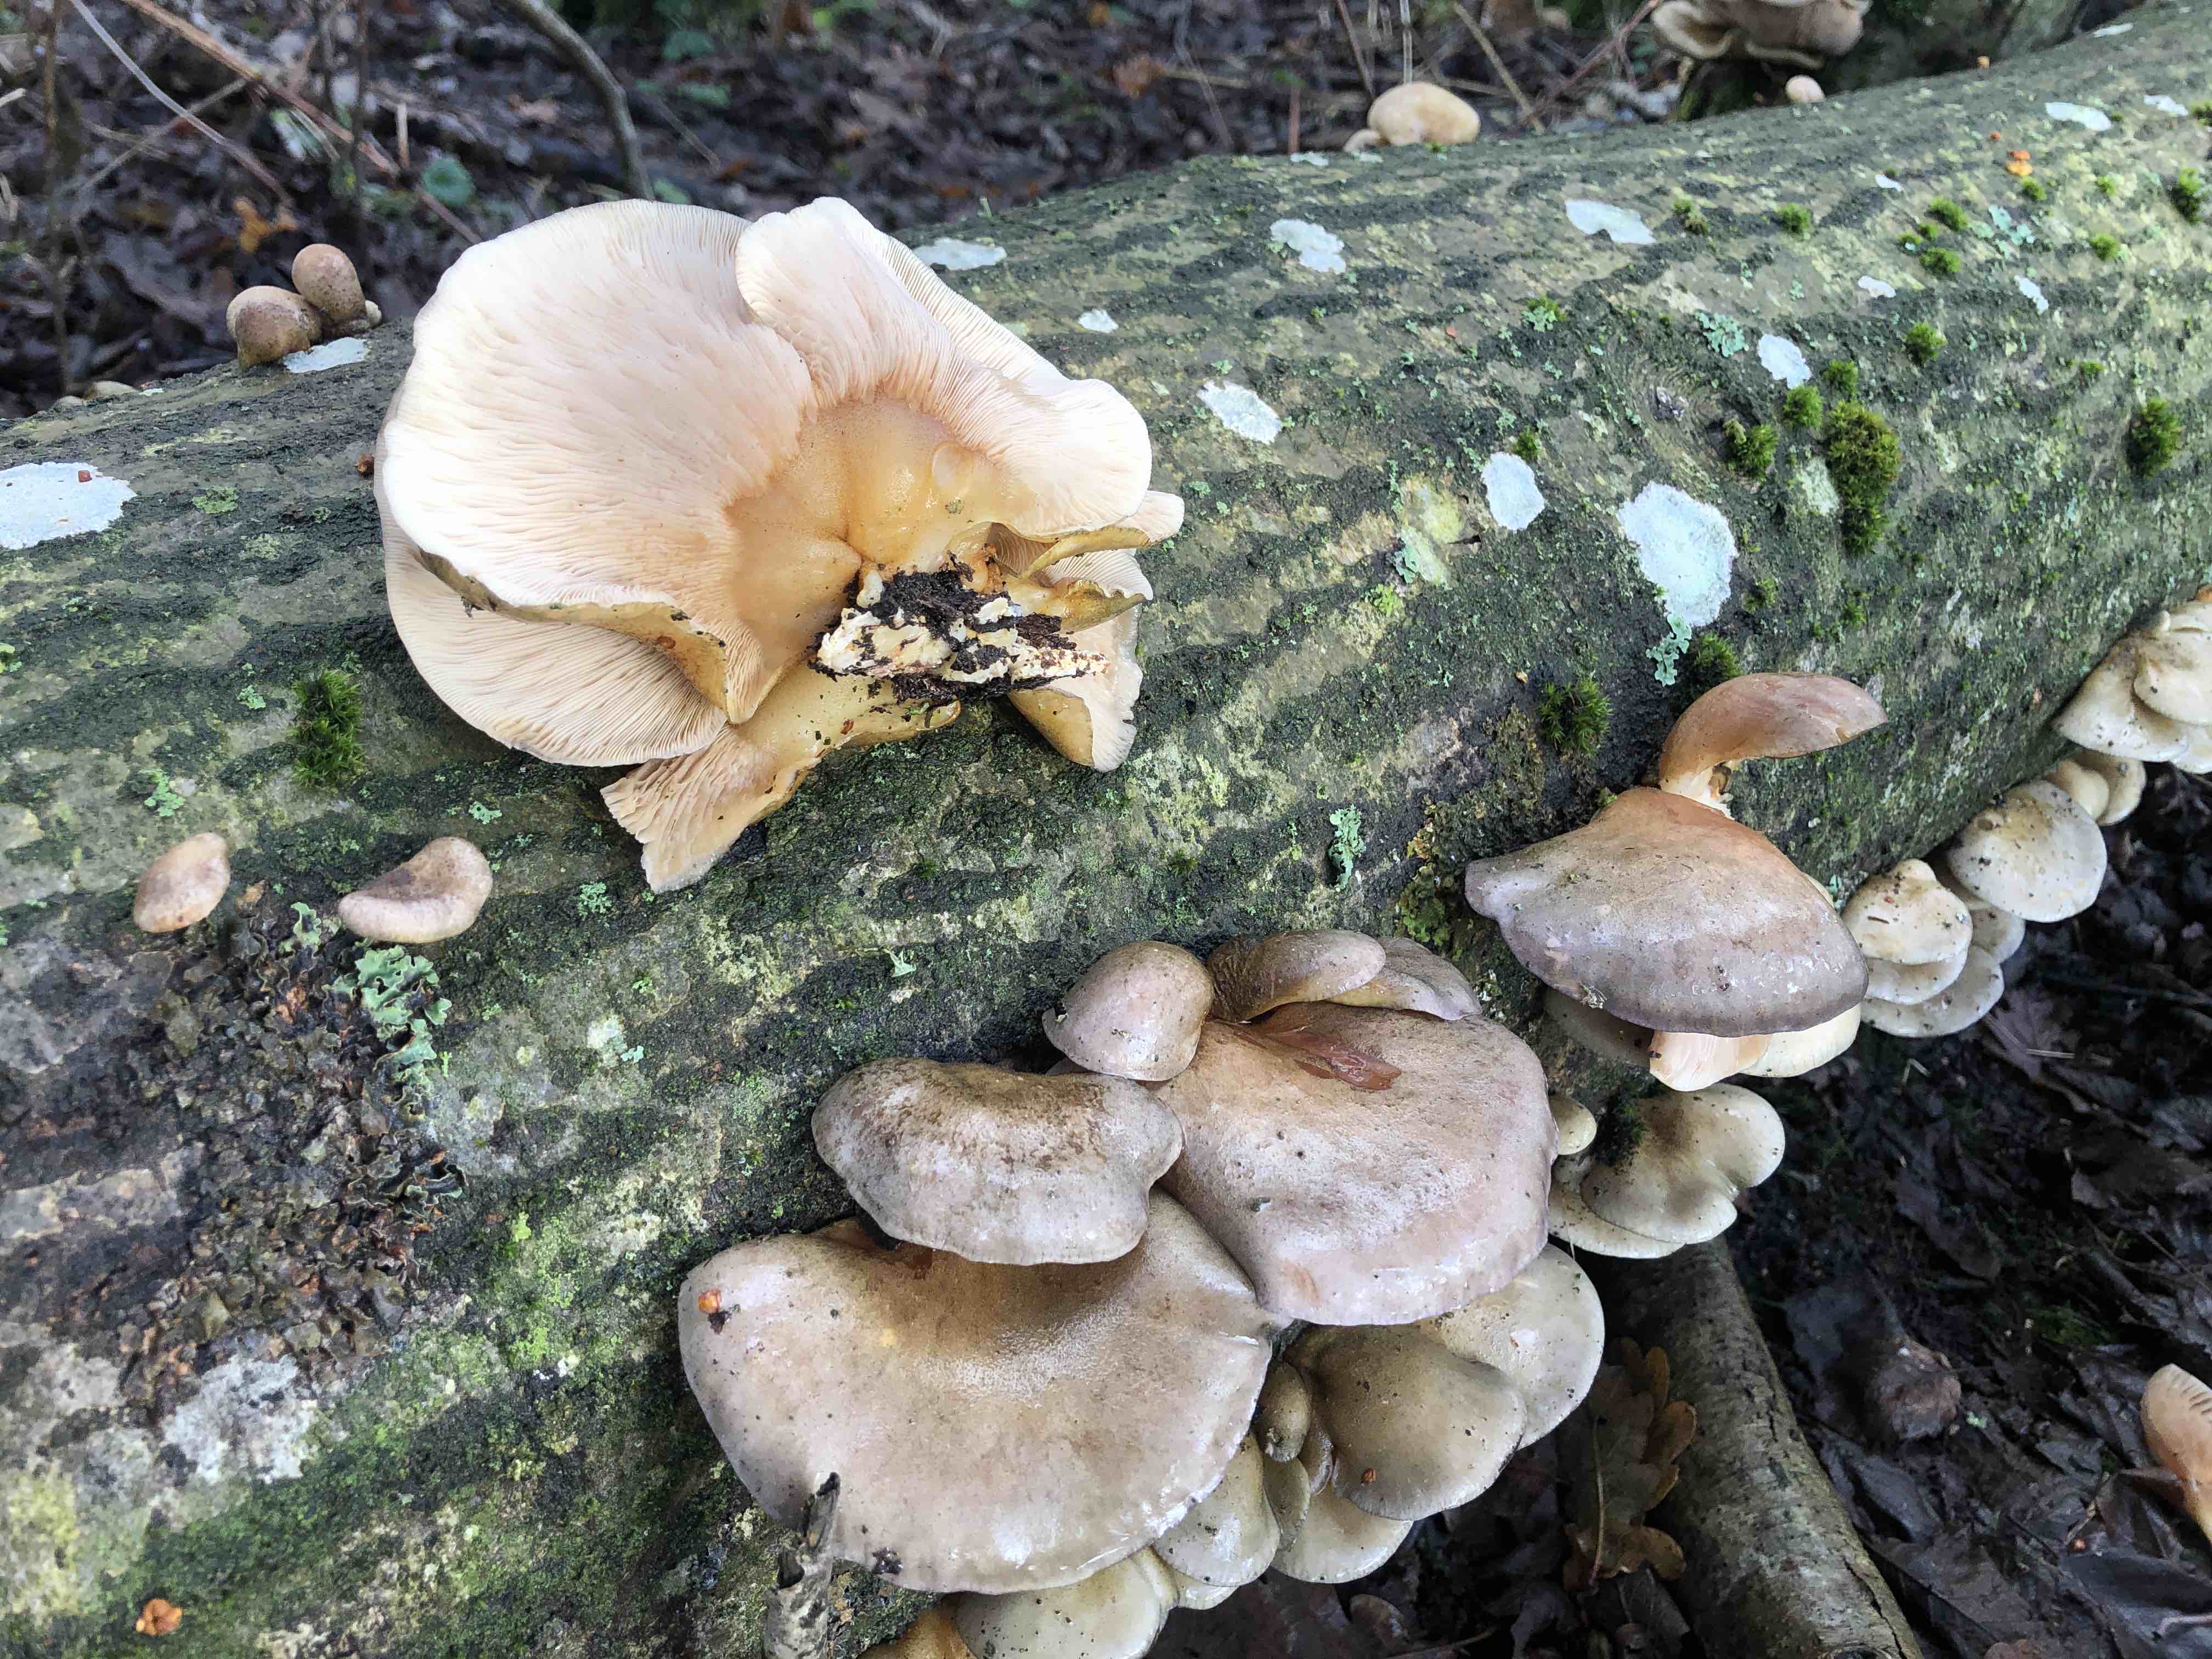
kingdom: Fungi
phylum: Basidiomycota
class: Agaricomycetes
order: Agaricales
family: Sarcomyxaceae
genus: Sarcomyxa
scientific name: Sarcomyxa serotina
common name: gummihat
